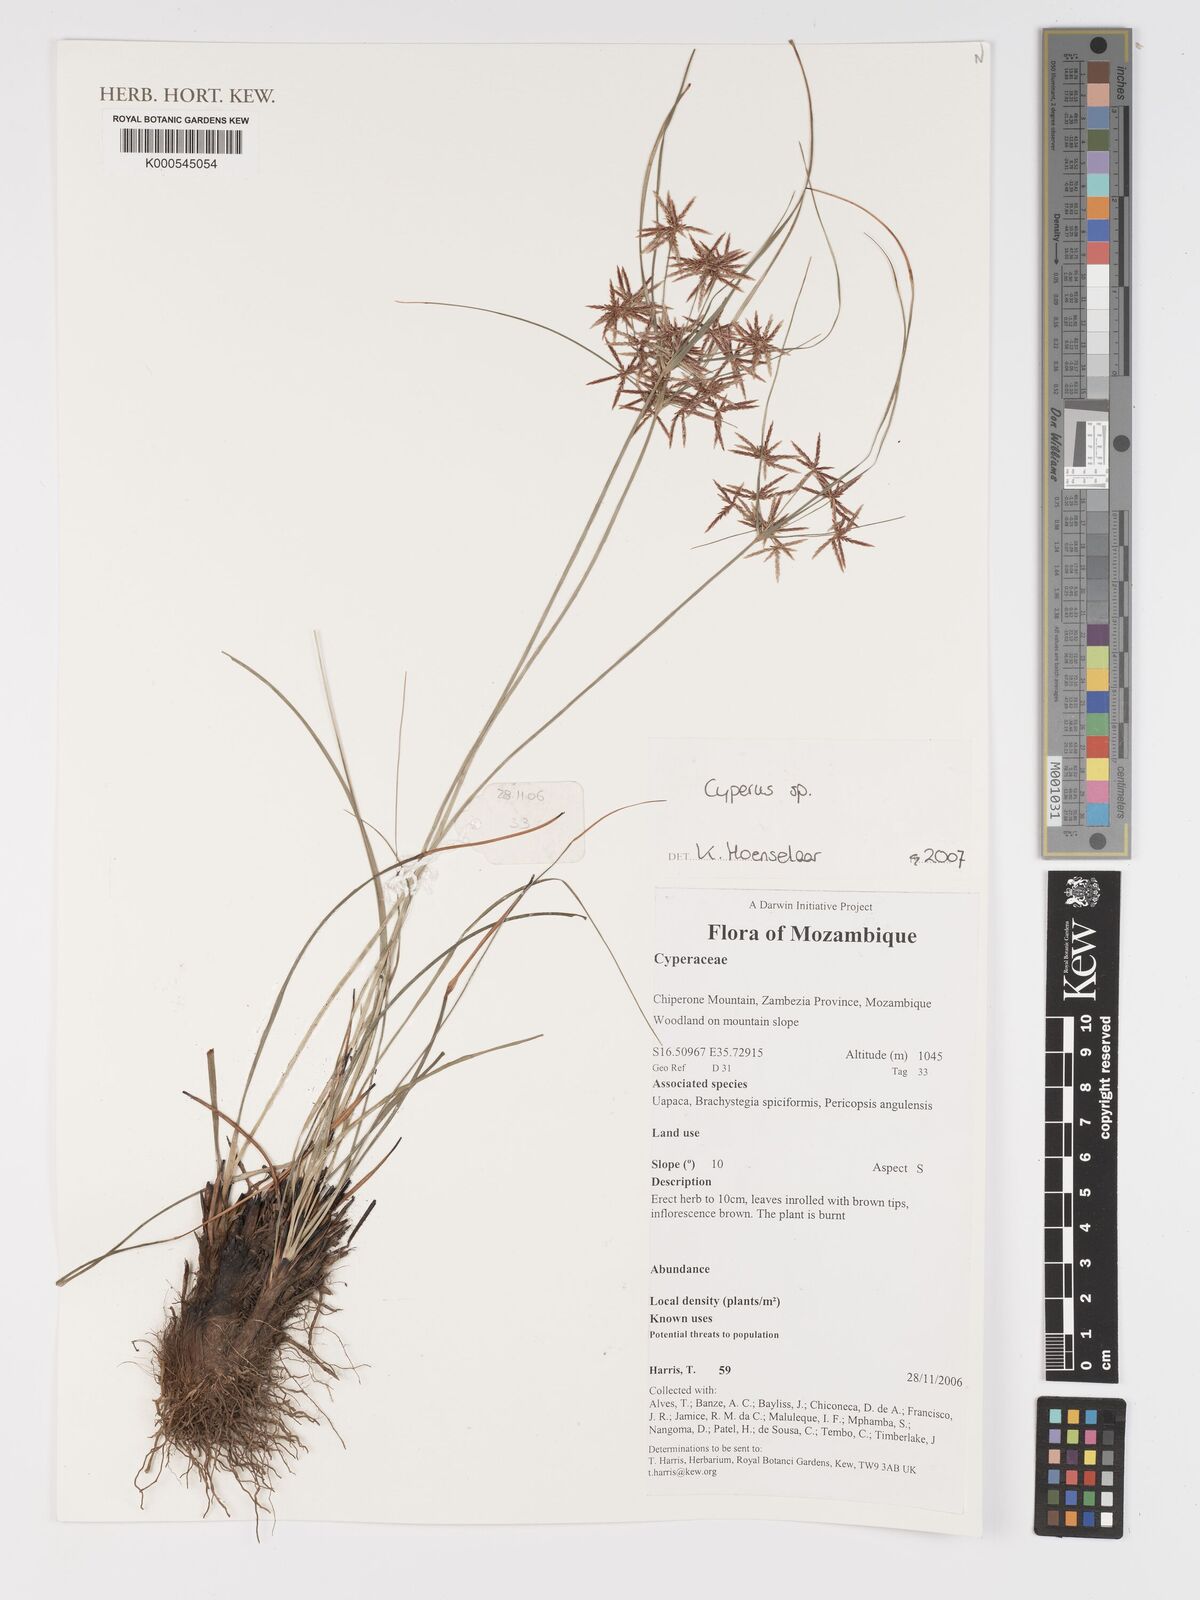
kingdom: Plantae
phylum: Tracheophyta
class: Liliopsida
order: Poales
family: Cyperaceae
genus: Cyperus
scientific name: Cyperus
